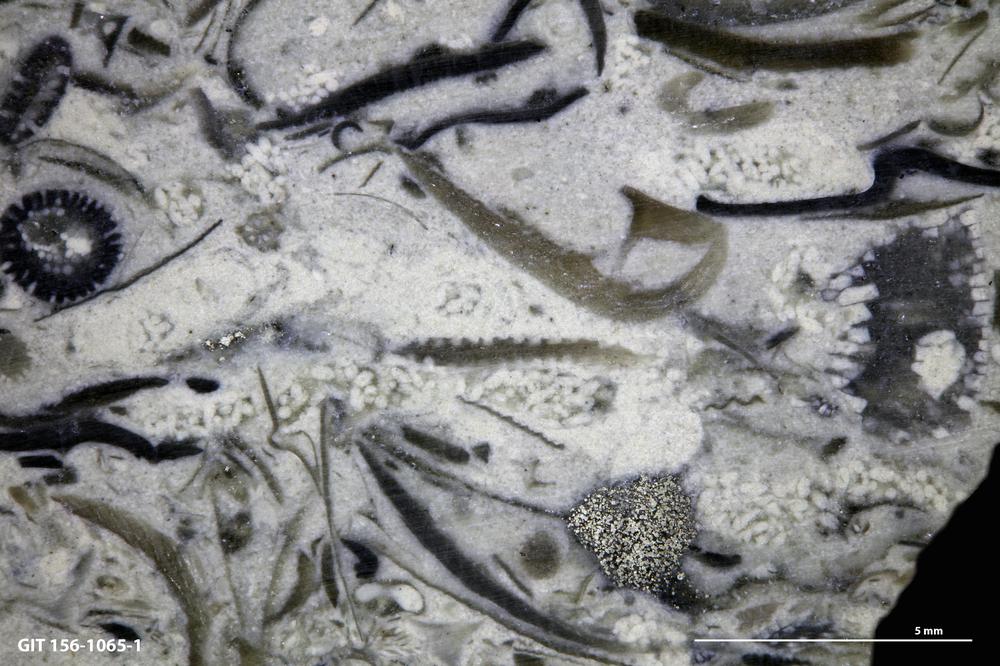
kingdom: Animalia
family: Coprulidae
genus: Coprulus
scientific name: Coprulus
